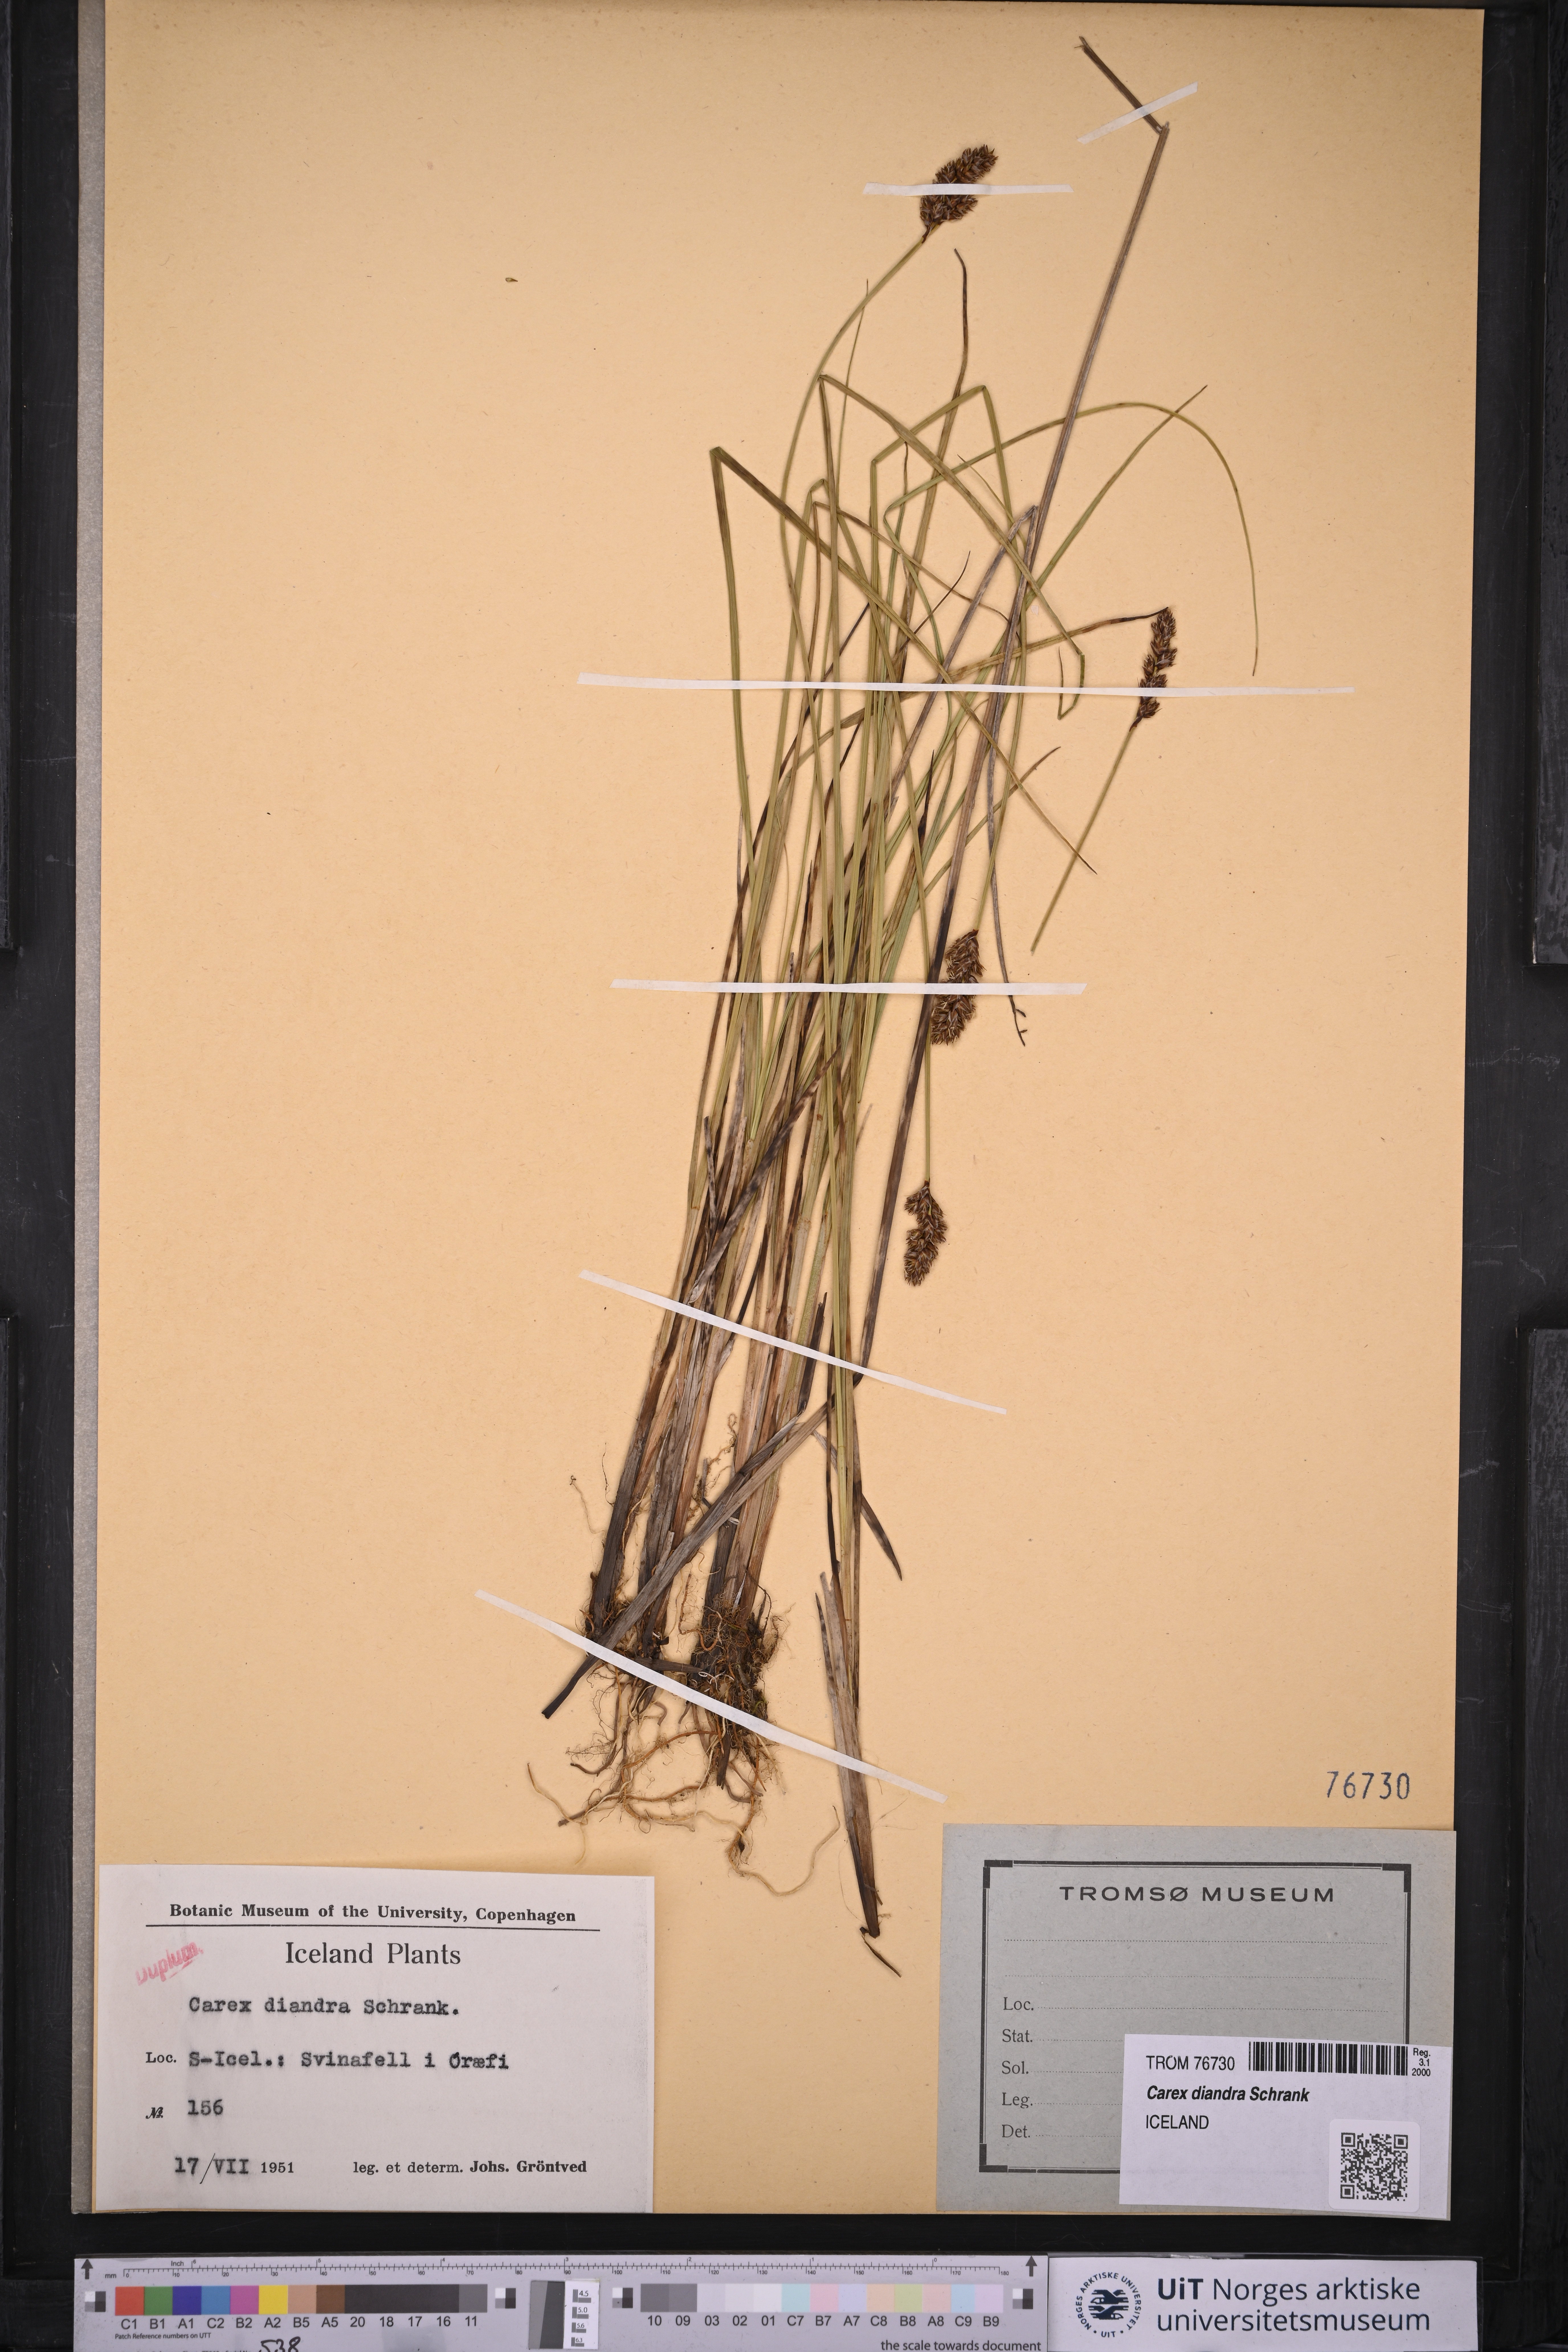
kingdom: Plantae
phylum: Tracheophyta
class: Liliopsida
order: Poales
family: Cyperaceae
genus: Carex
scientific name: Carex diandra
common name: Lesser tussock-sedge
